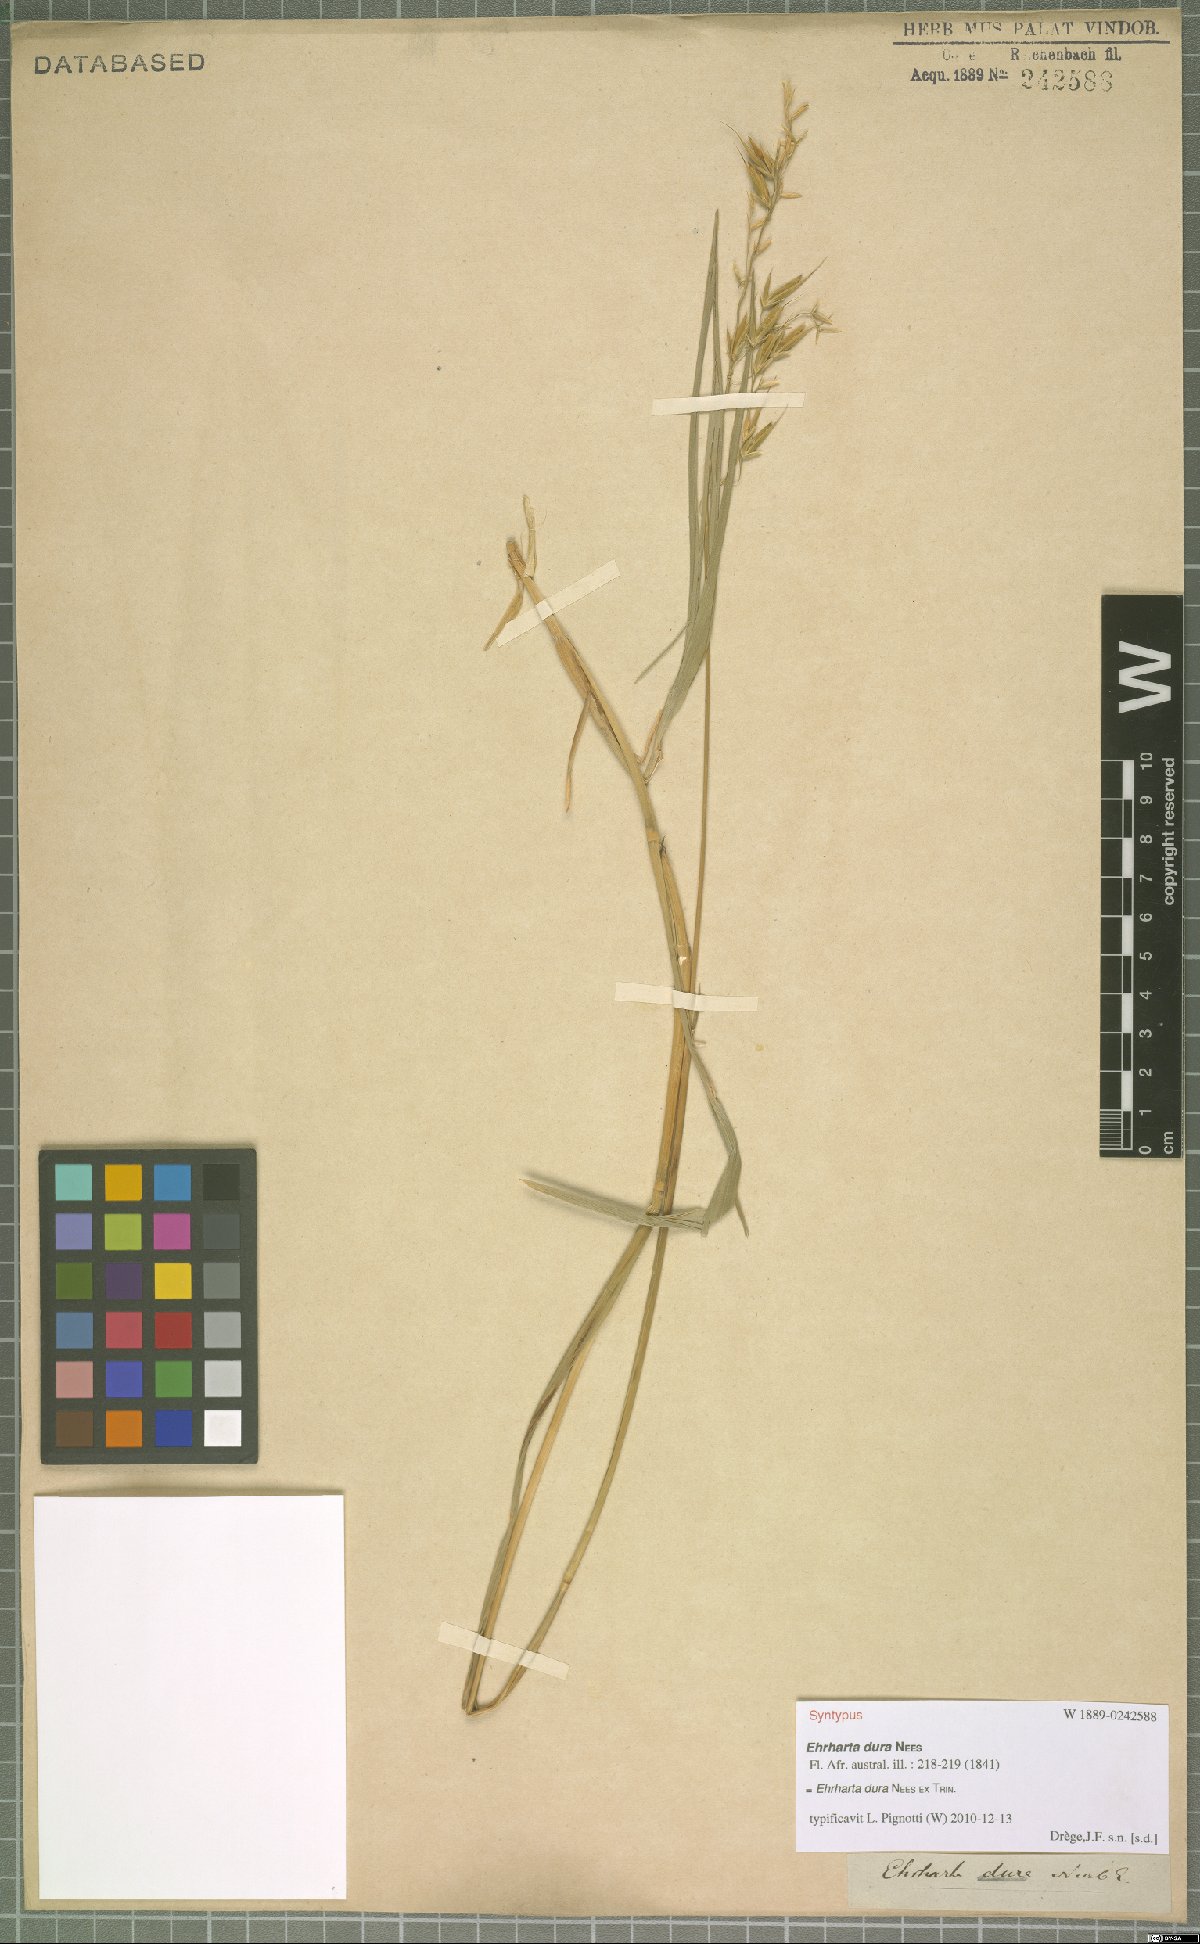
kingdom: Plantae
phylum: Tracheophyta
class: Liliopsida
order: Poales
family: Poaceae
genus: Ehrharta
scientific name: Ehrharta dura
